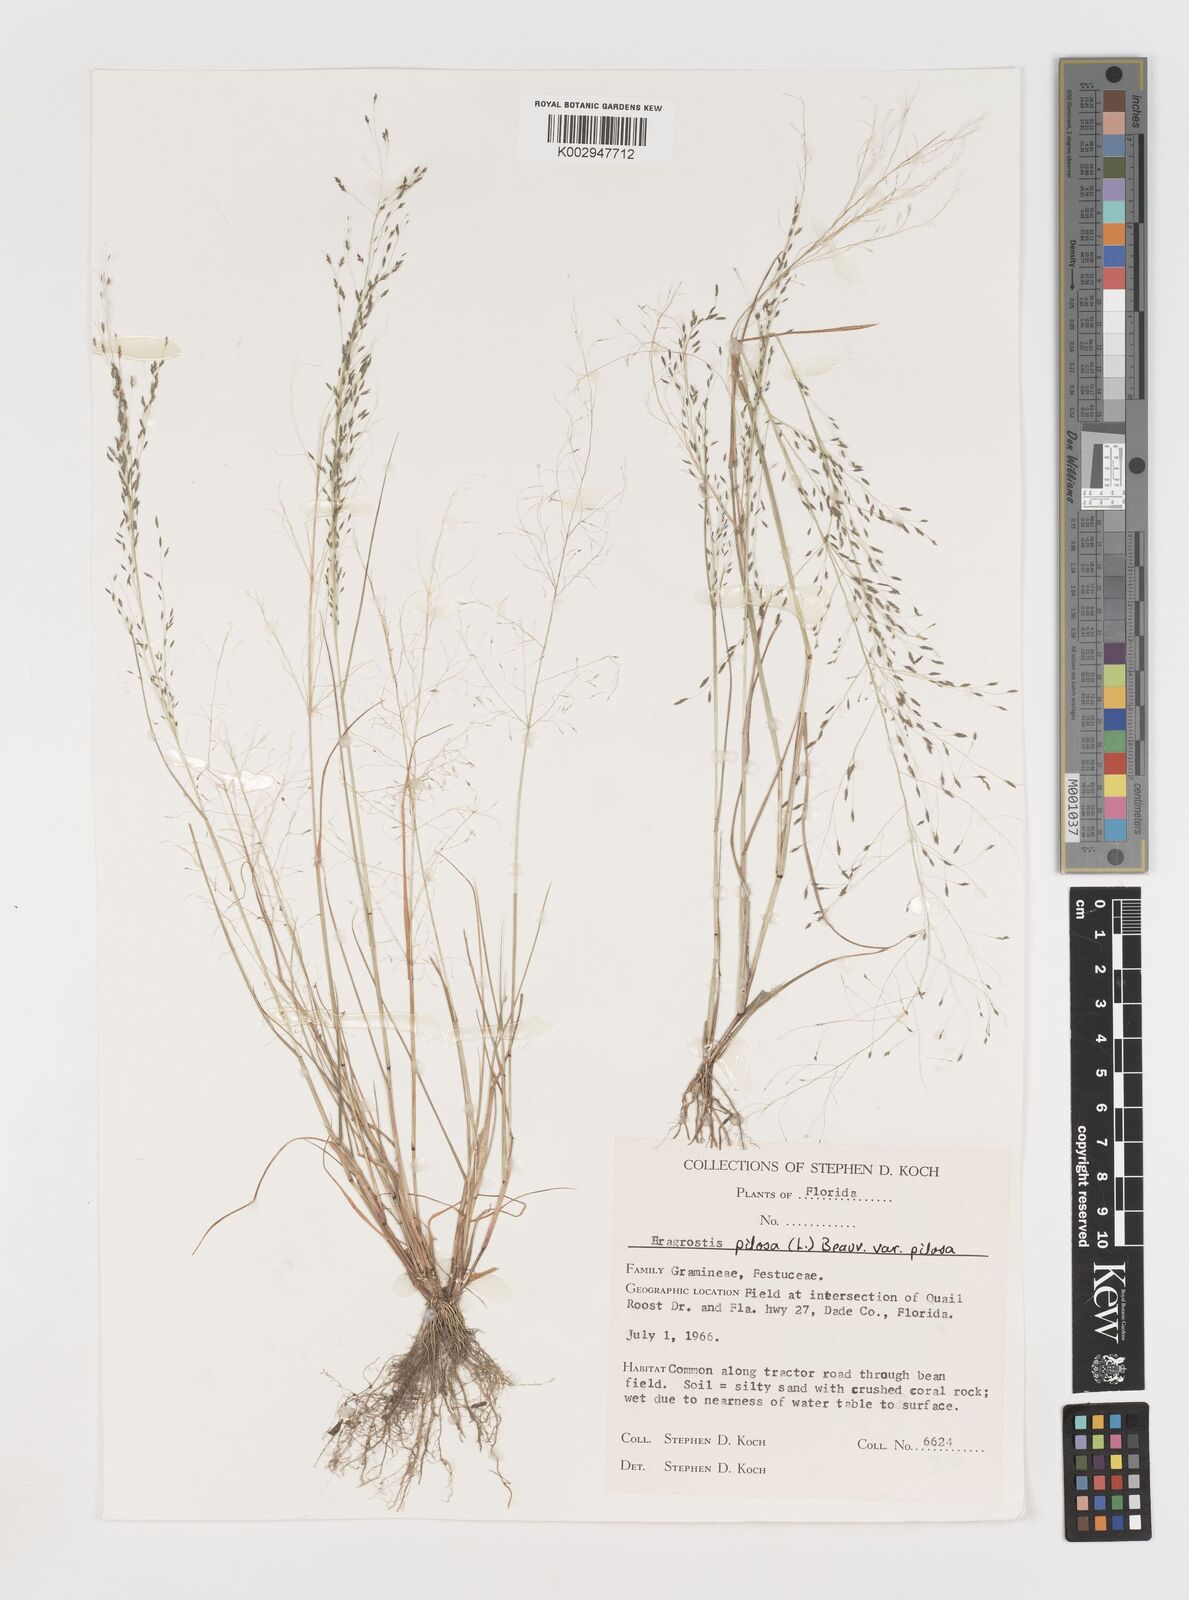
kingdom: Plantae
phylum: Tracheophyta
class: Liliopsida
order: Poales
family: Poaceae
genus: Eragrostis
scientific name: Eragrostis pilosa
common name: Indian lovegrass
